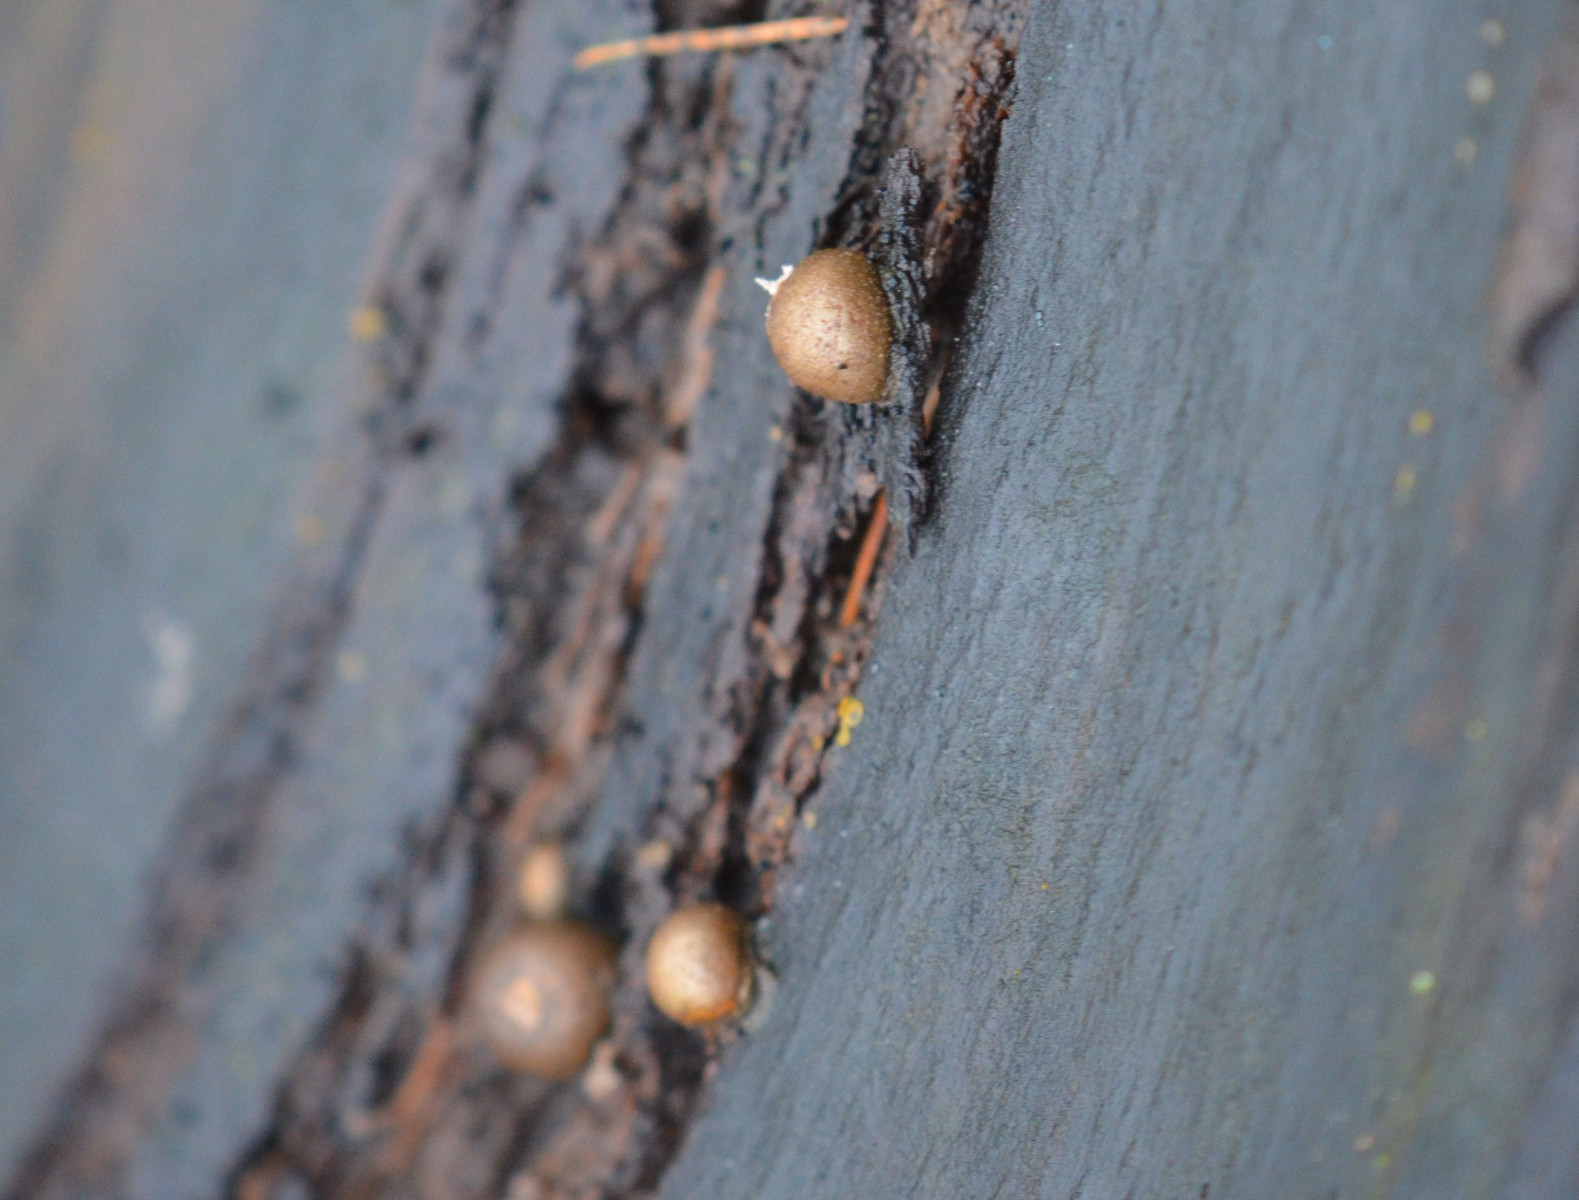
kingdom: Protozoa
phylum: Mycetozoa
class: Myxomycetes
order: Cribrariales
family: Tubiferaceae
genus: Lycogala
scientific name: Lycogala epidendrum
